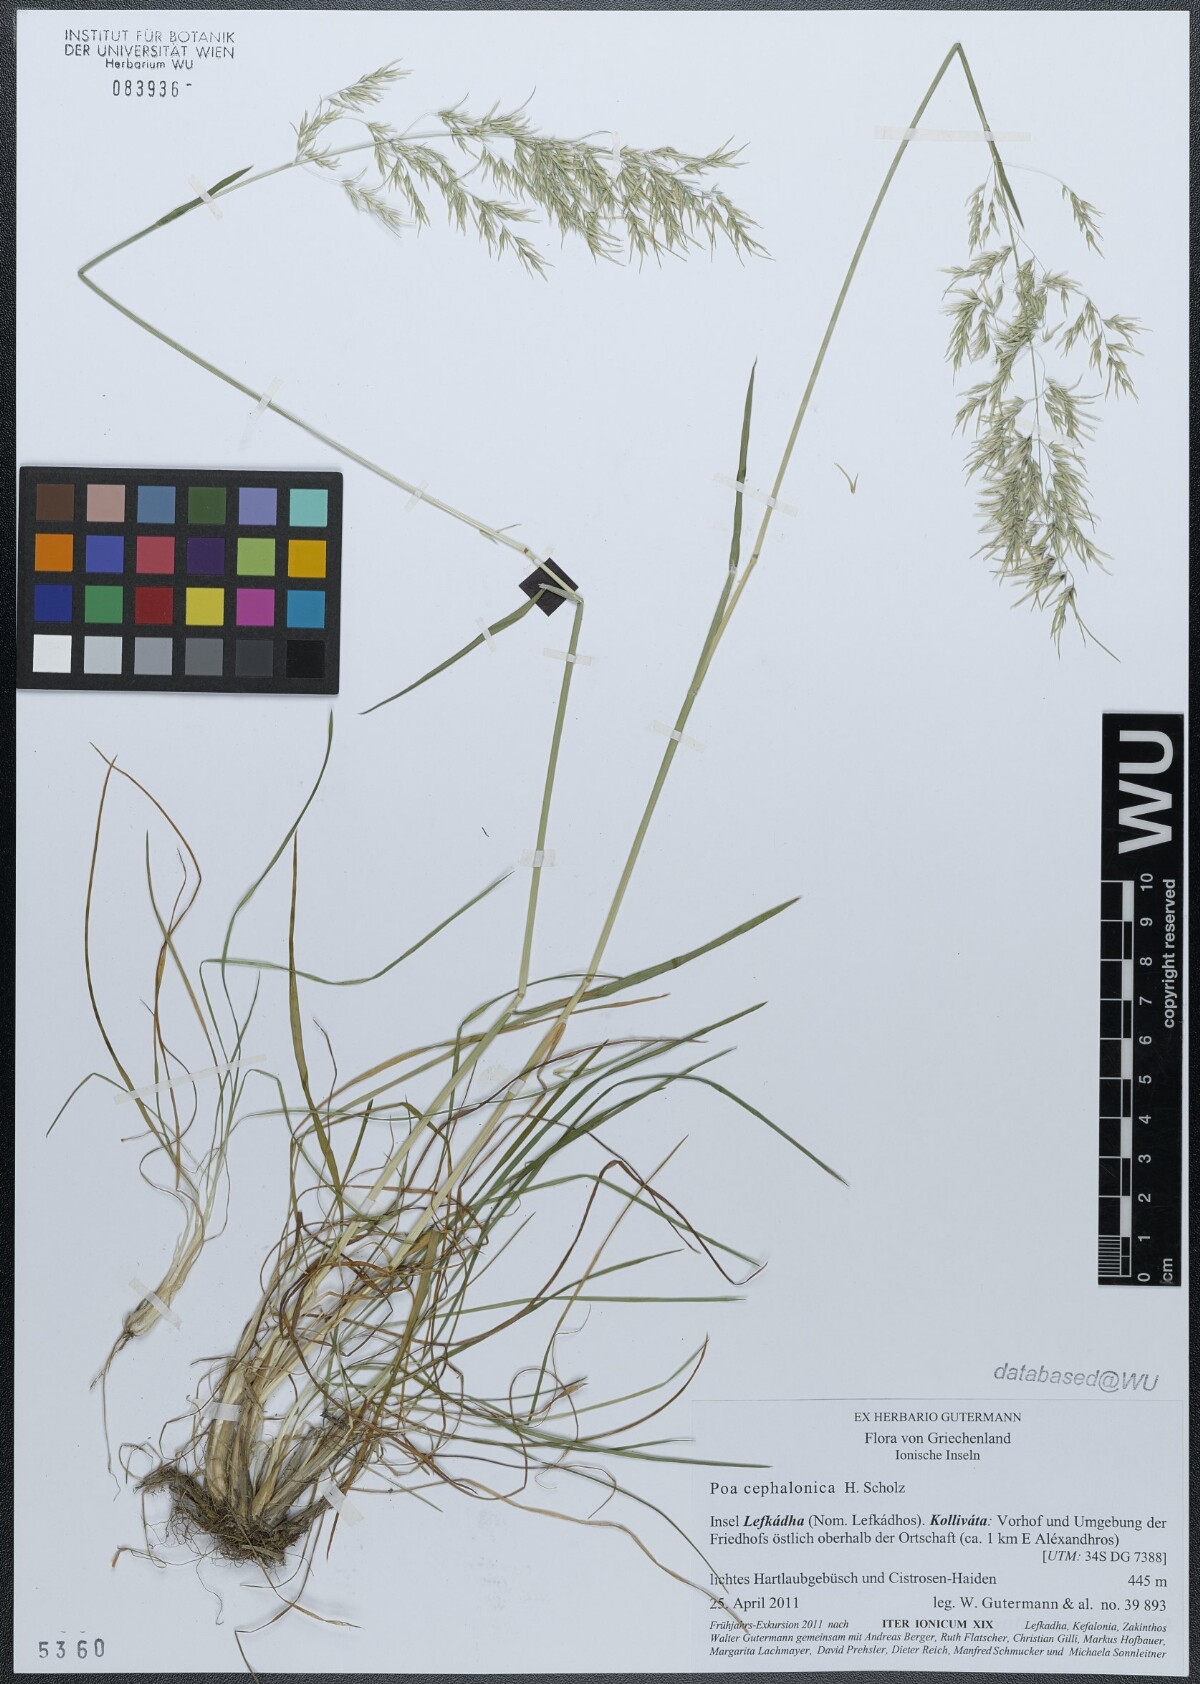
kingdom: Plantae
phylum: Tracheophyta
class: Liliopsida
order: Poales
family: Poaceae
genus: Poa
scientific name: Poa bulbosa
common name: Bulbous bluegrass
